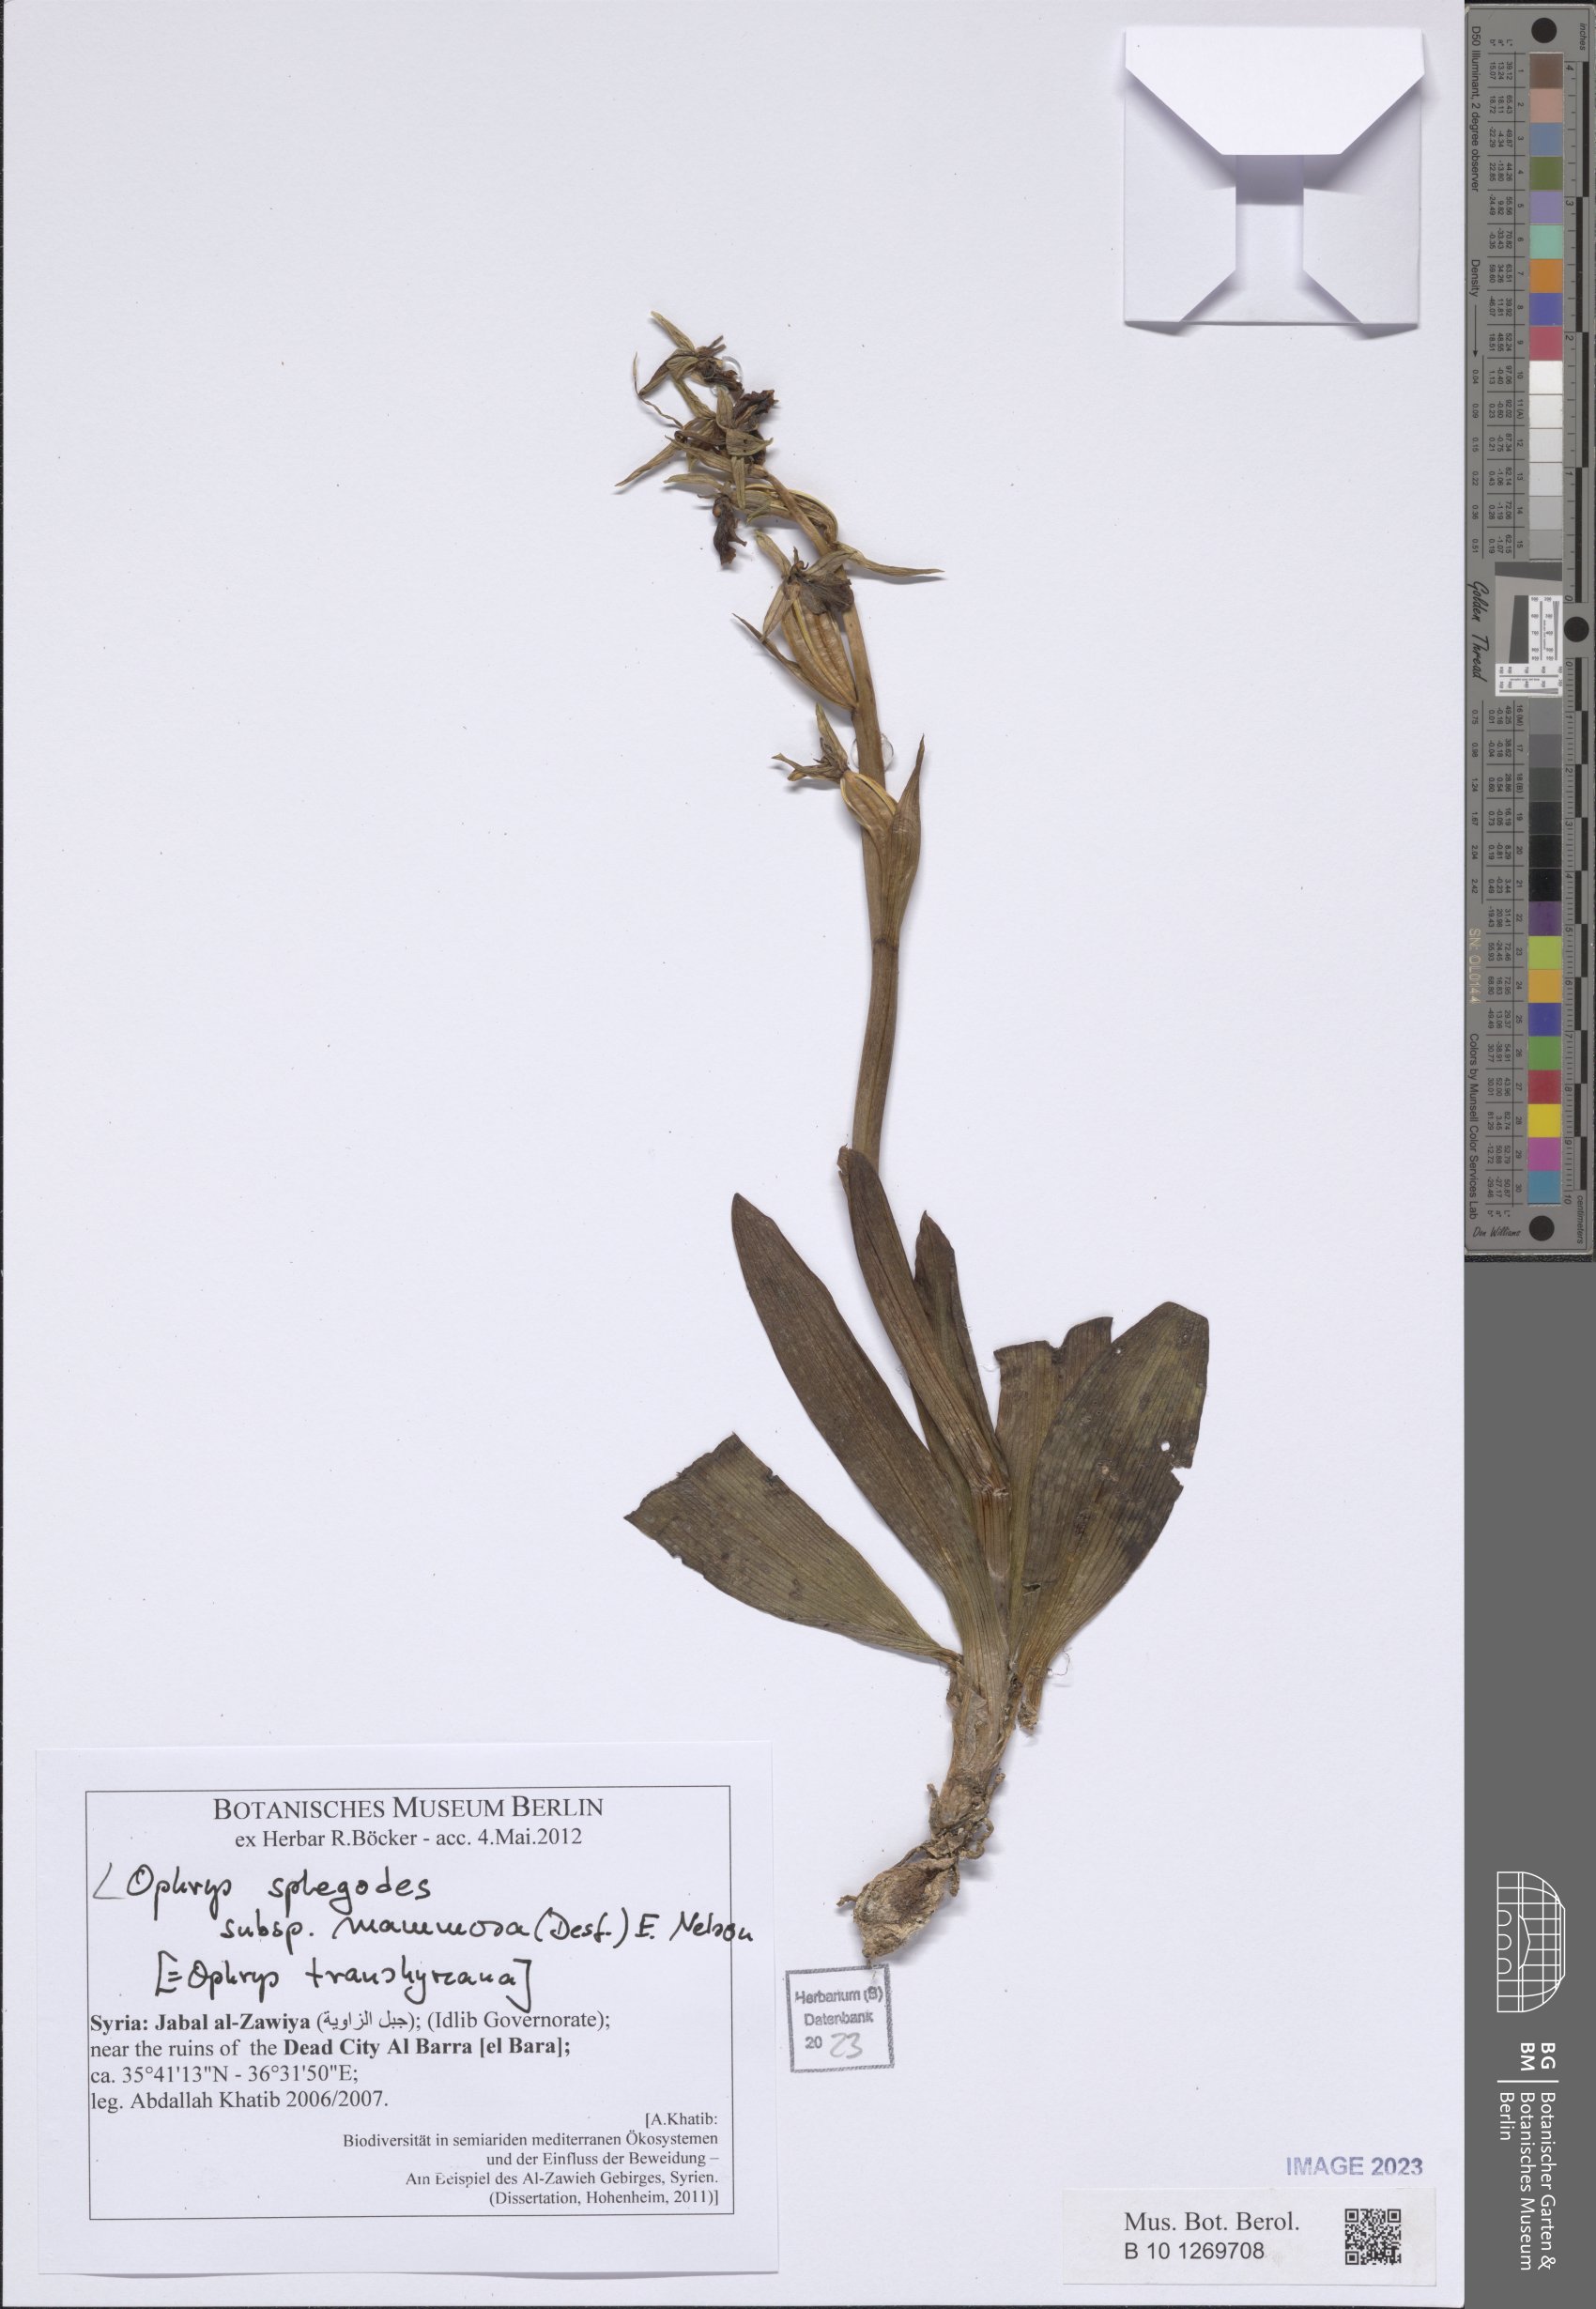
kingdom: Plantae
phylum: Tracheophyta
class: Liliopsida
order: Asparagales
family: Orchidaceae
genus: Ophrys
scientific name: Ophrys sphegodes
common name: Early spider-orchid
